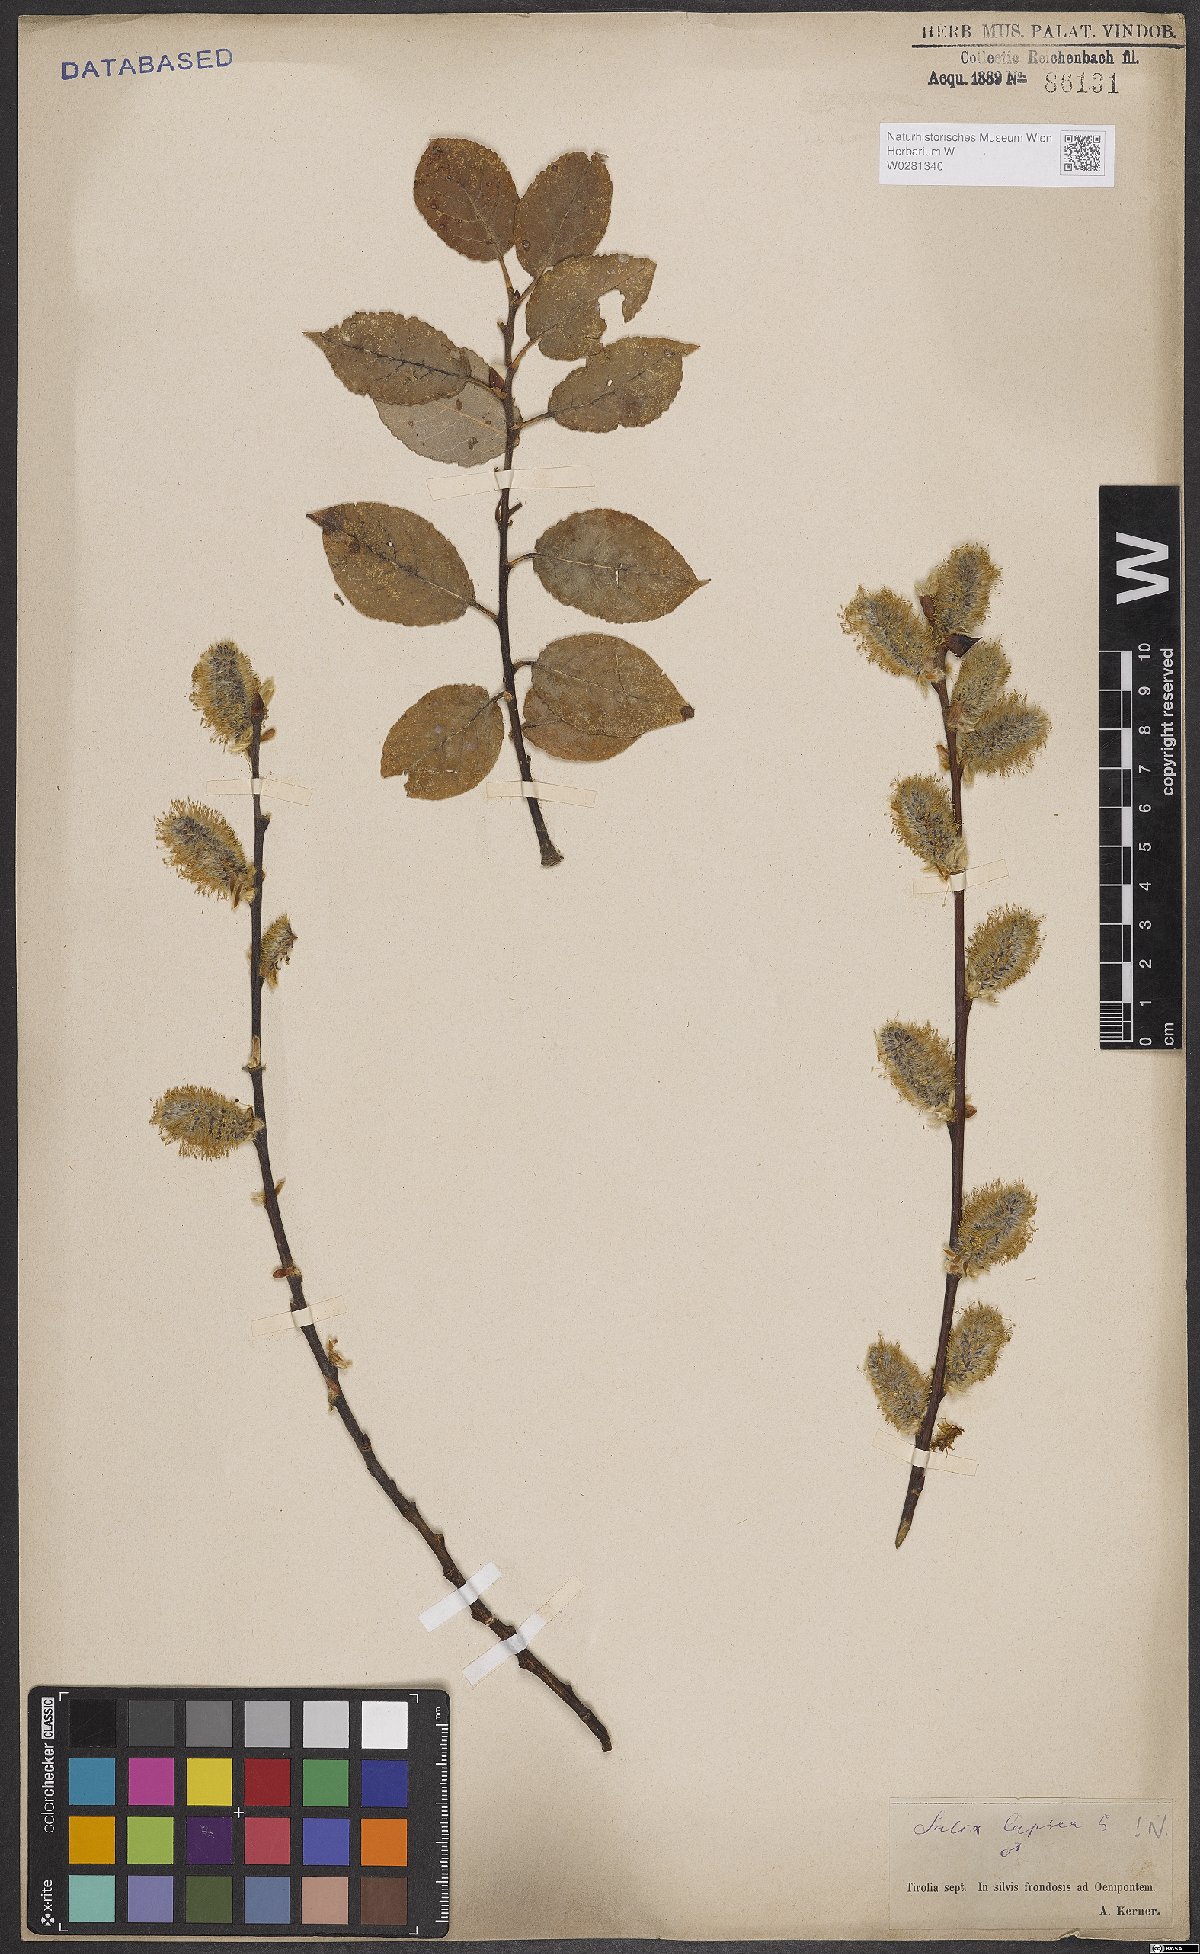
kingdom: Plantae
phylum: Tracheophyta
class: Magnoliopsida
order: Malpighiales
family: Salicaceae
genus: Salix
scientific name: Salix caprea
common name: Goat willow
